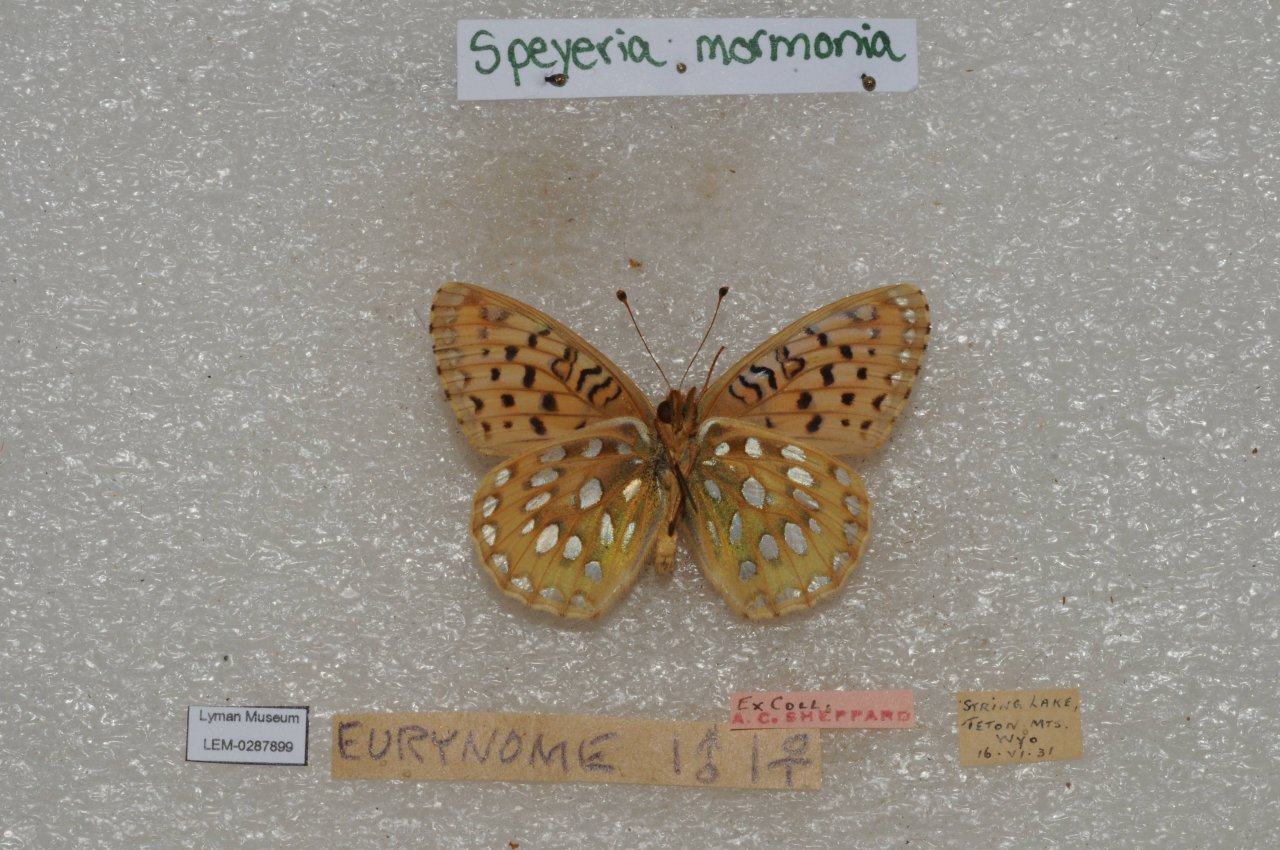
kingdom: Animalia
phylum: Arthropoda
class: Insecta
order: Lepidoptera
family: Nymphalidae
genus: Speyeria
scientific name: Speyeria mormonia
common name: Mormon Fritillary
